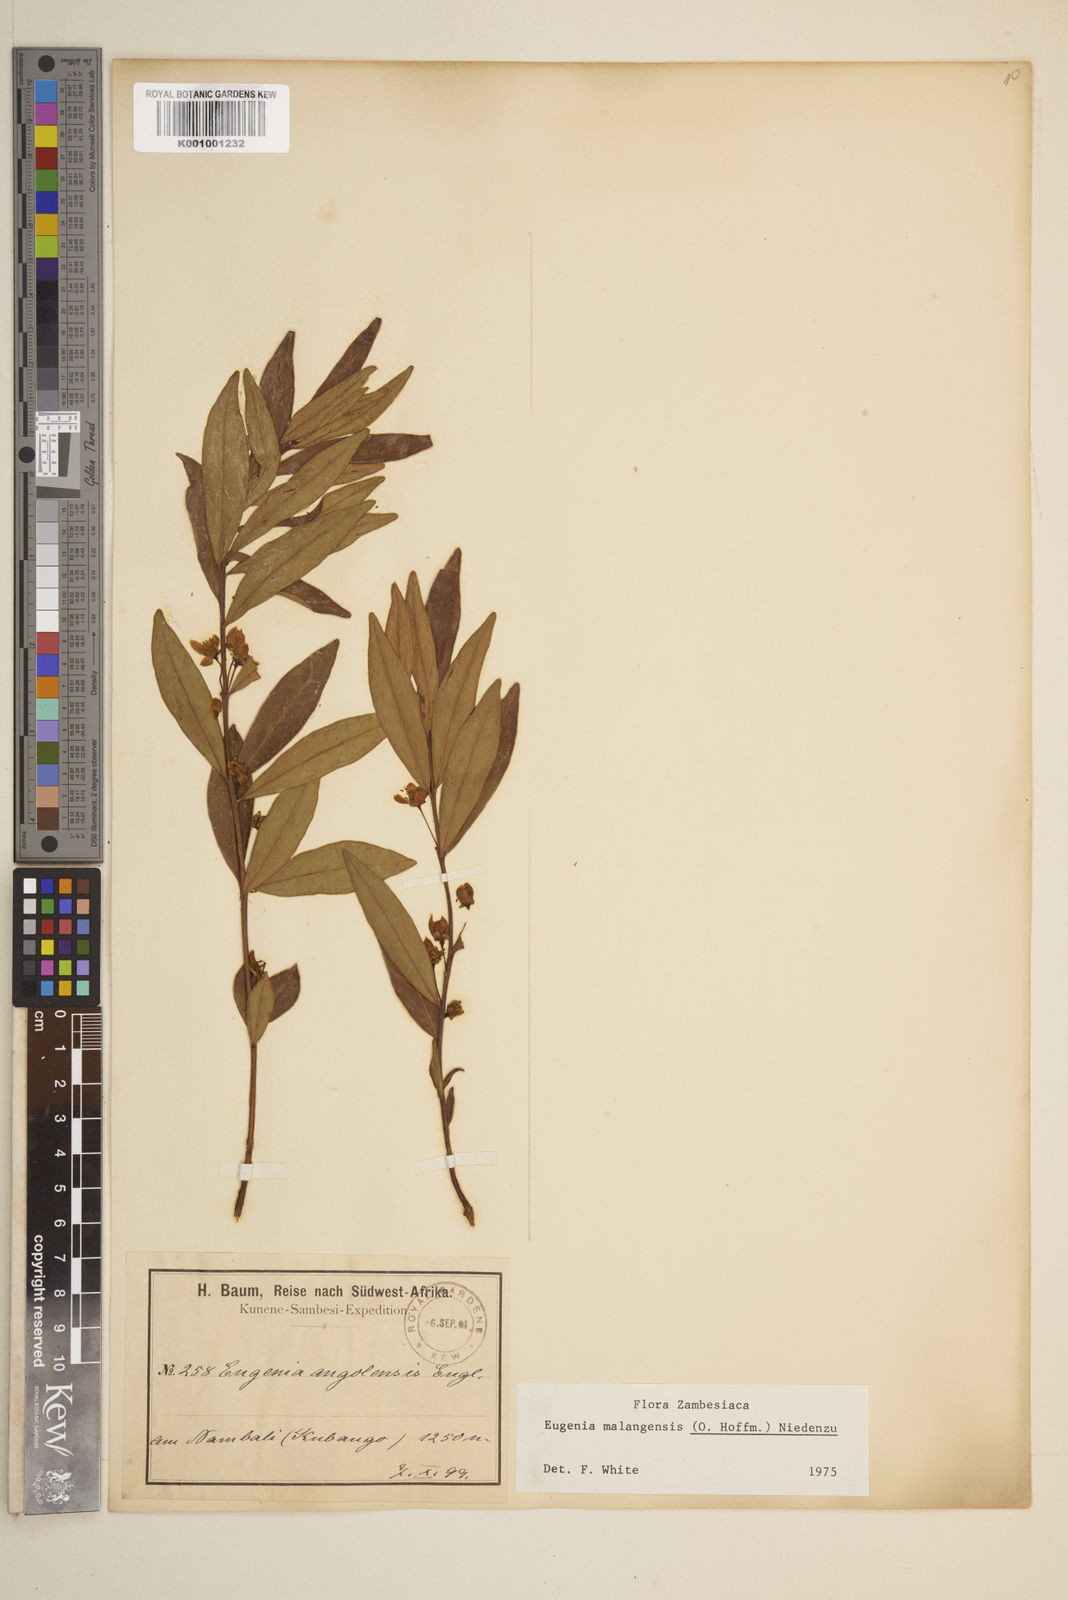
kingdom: Plantae
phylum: Tracheophyta
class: Magnoliopsida
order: Myrtales
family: Myrtaceae
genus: Eugenia
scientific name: Eugenia malangensis
